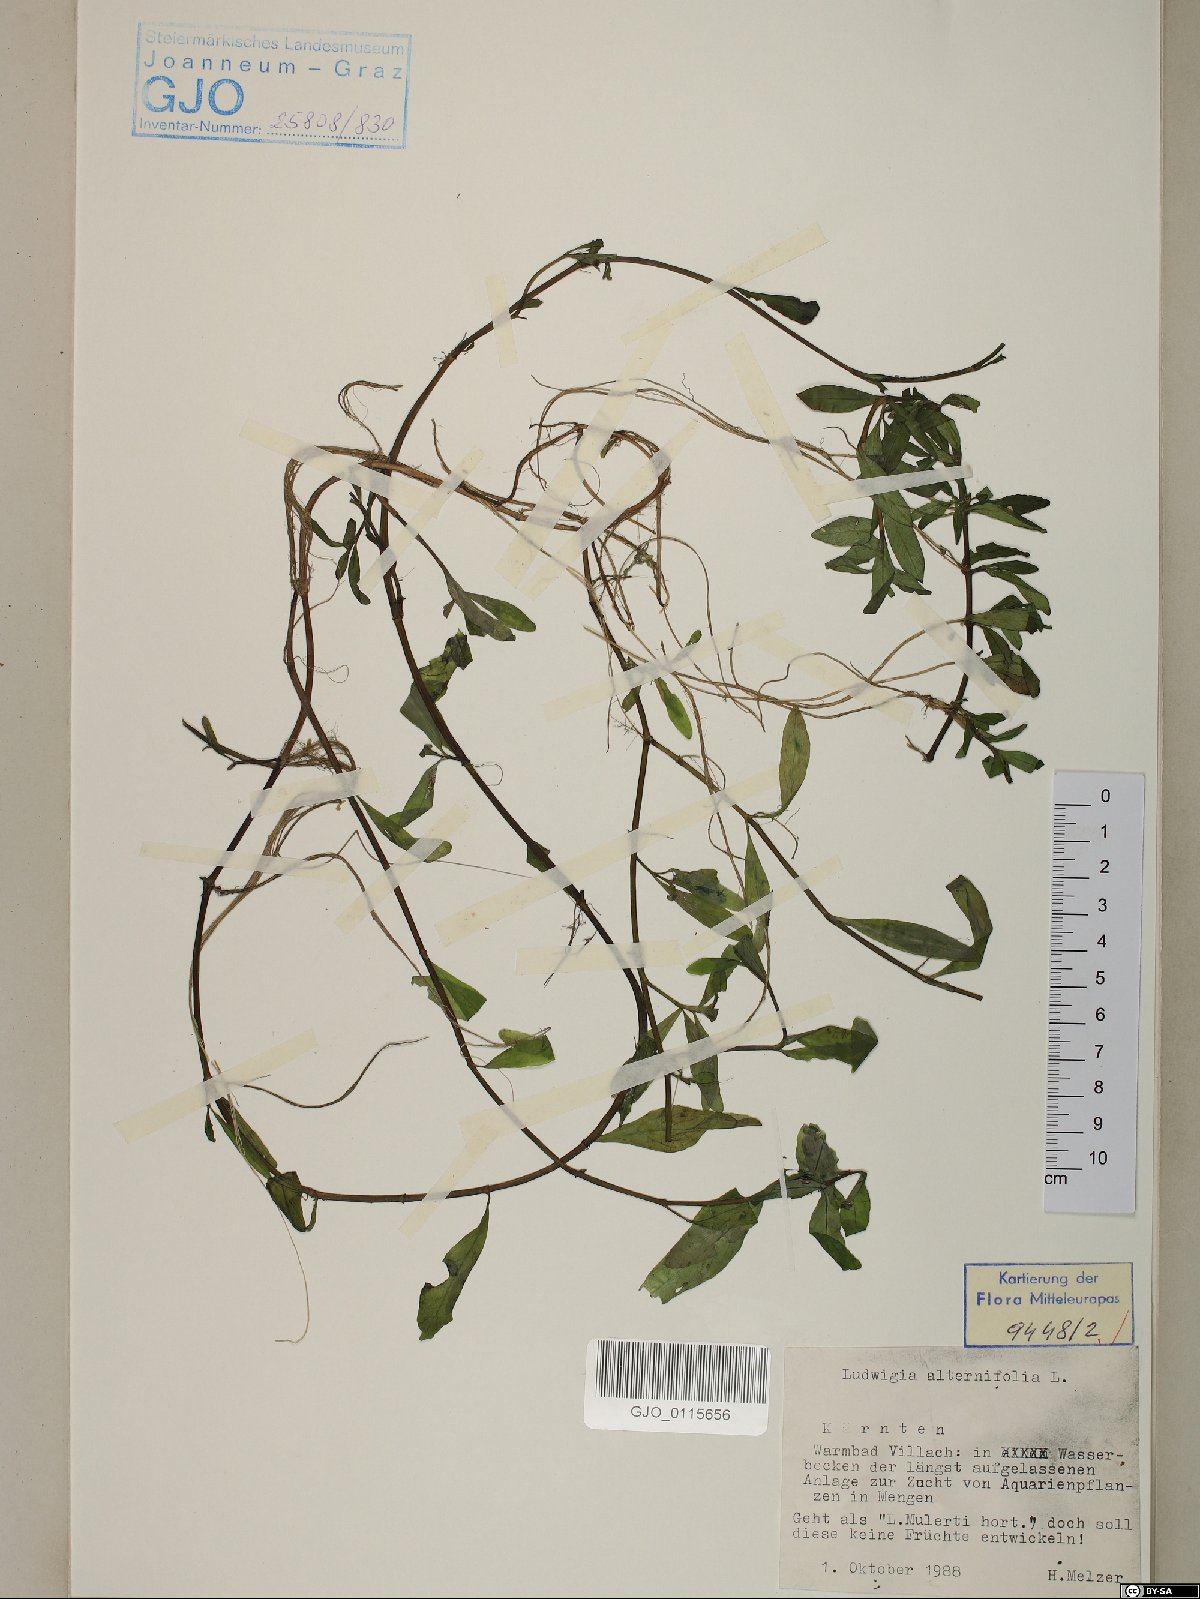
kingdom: Plantae
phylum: Tracheophyta
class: Magnoliopsida
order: Myrtales
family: Onagraceae
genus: Ludwigia
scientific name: Ludwigia alternifolia
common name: Rattlebox
